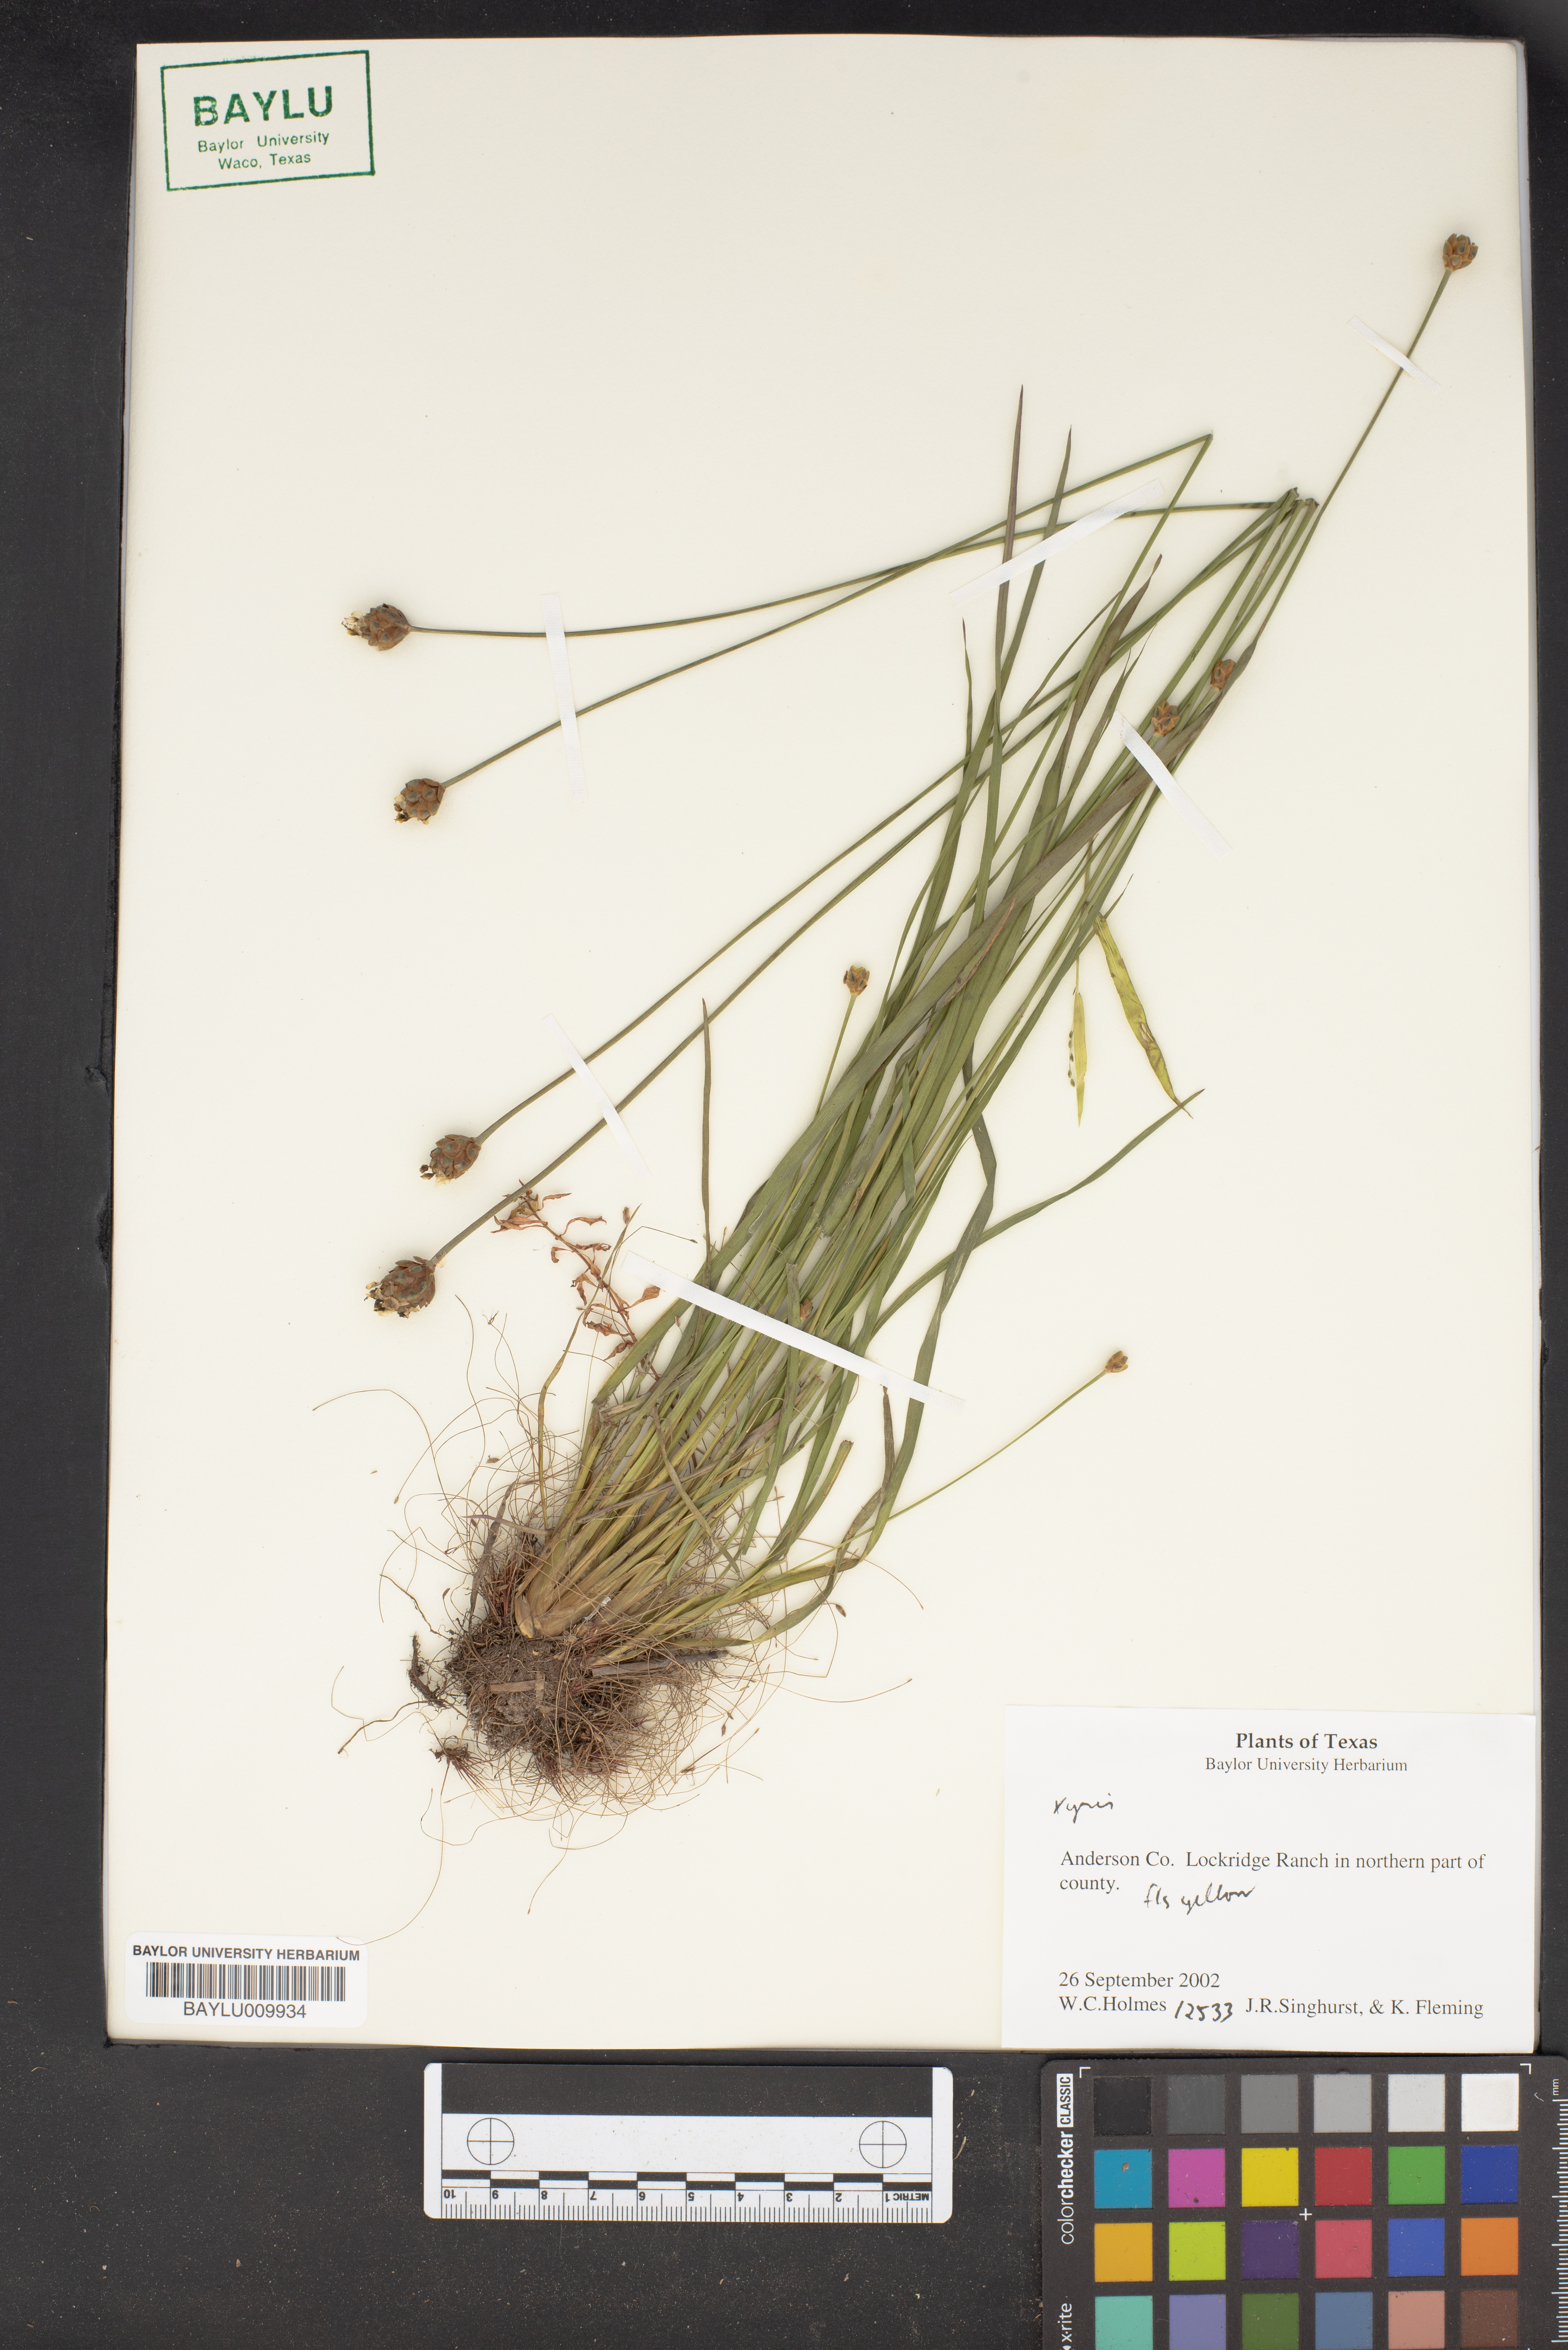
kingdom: Plantae
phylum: Tracheophyta
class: Liliopsida
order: Poales
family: Xyridaceae
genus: Xyris
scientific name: Xyris
